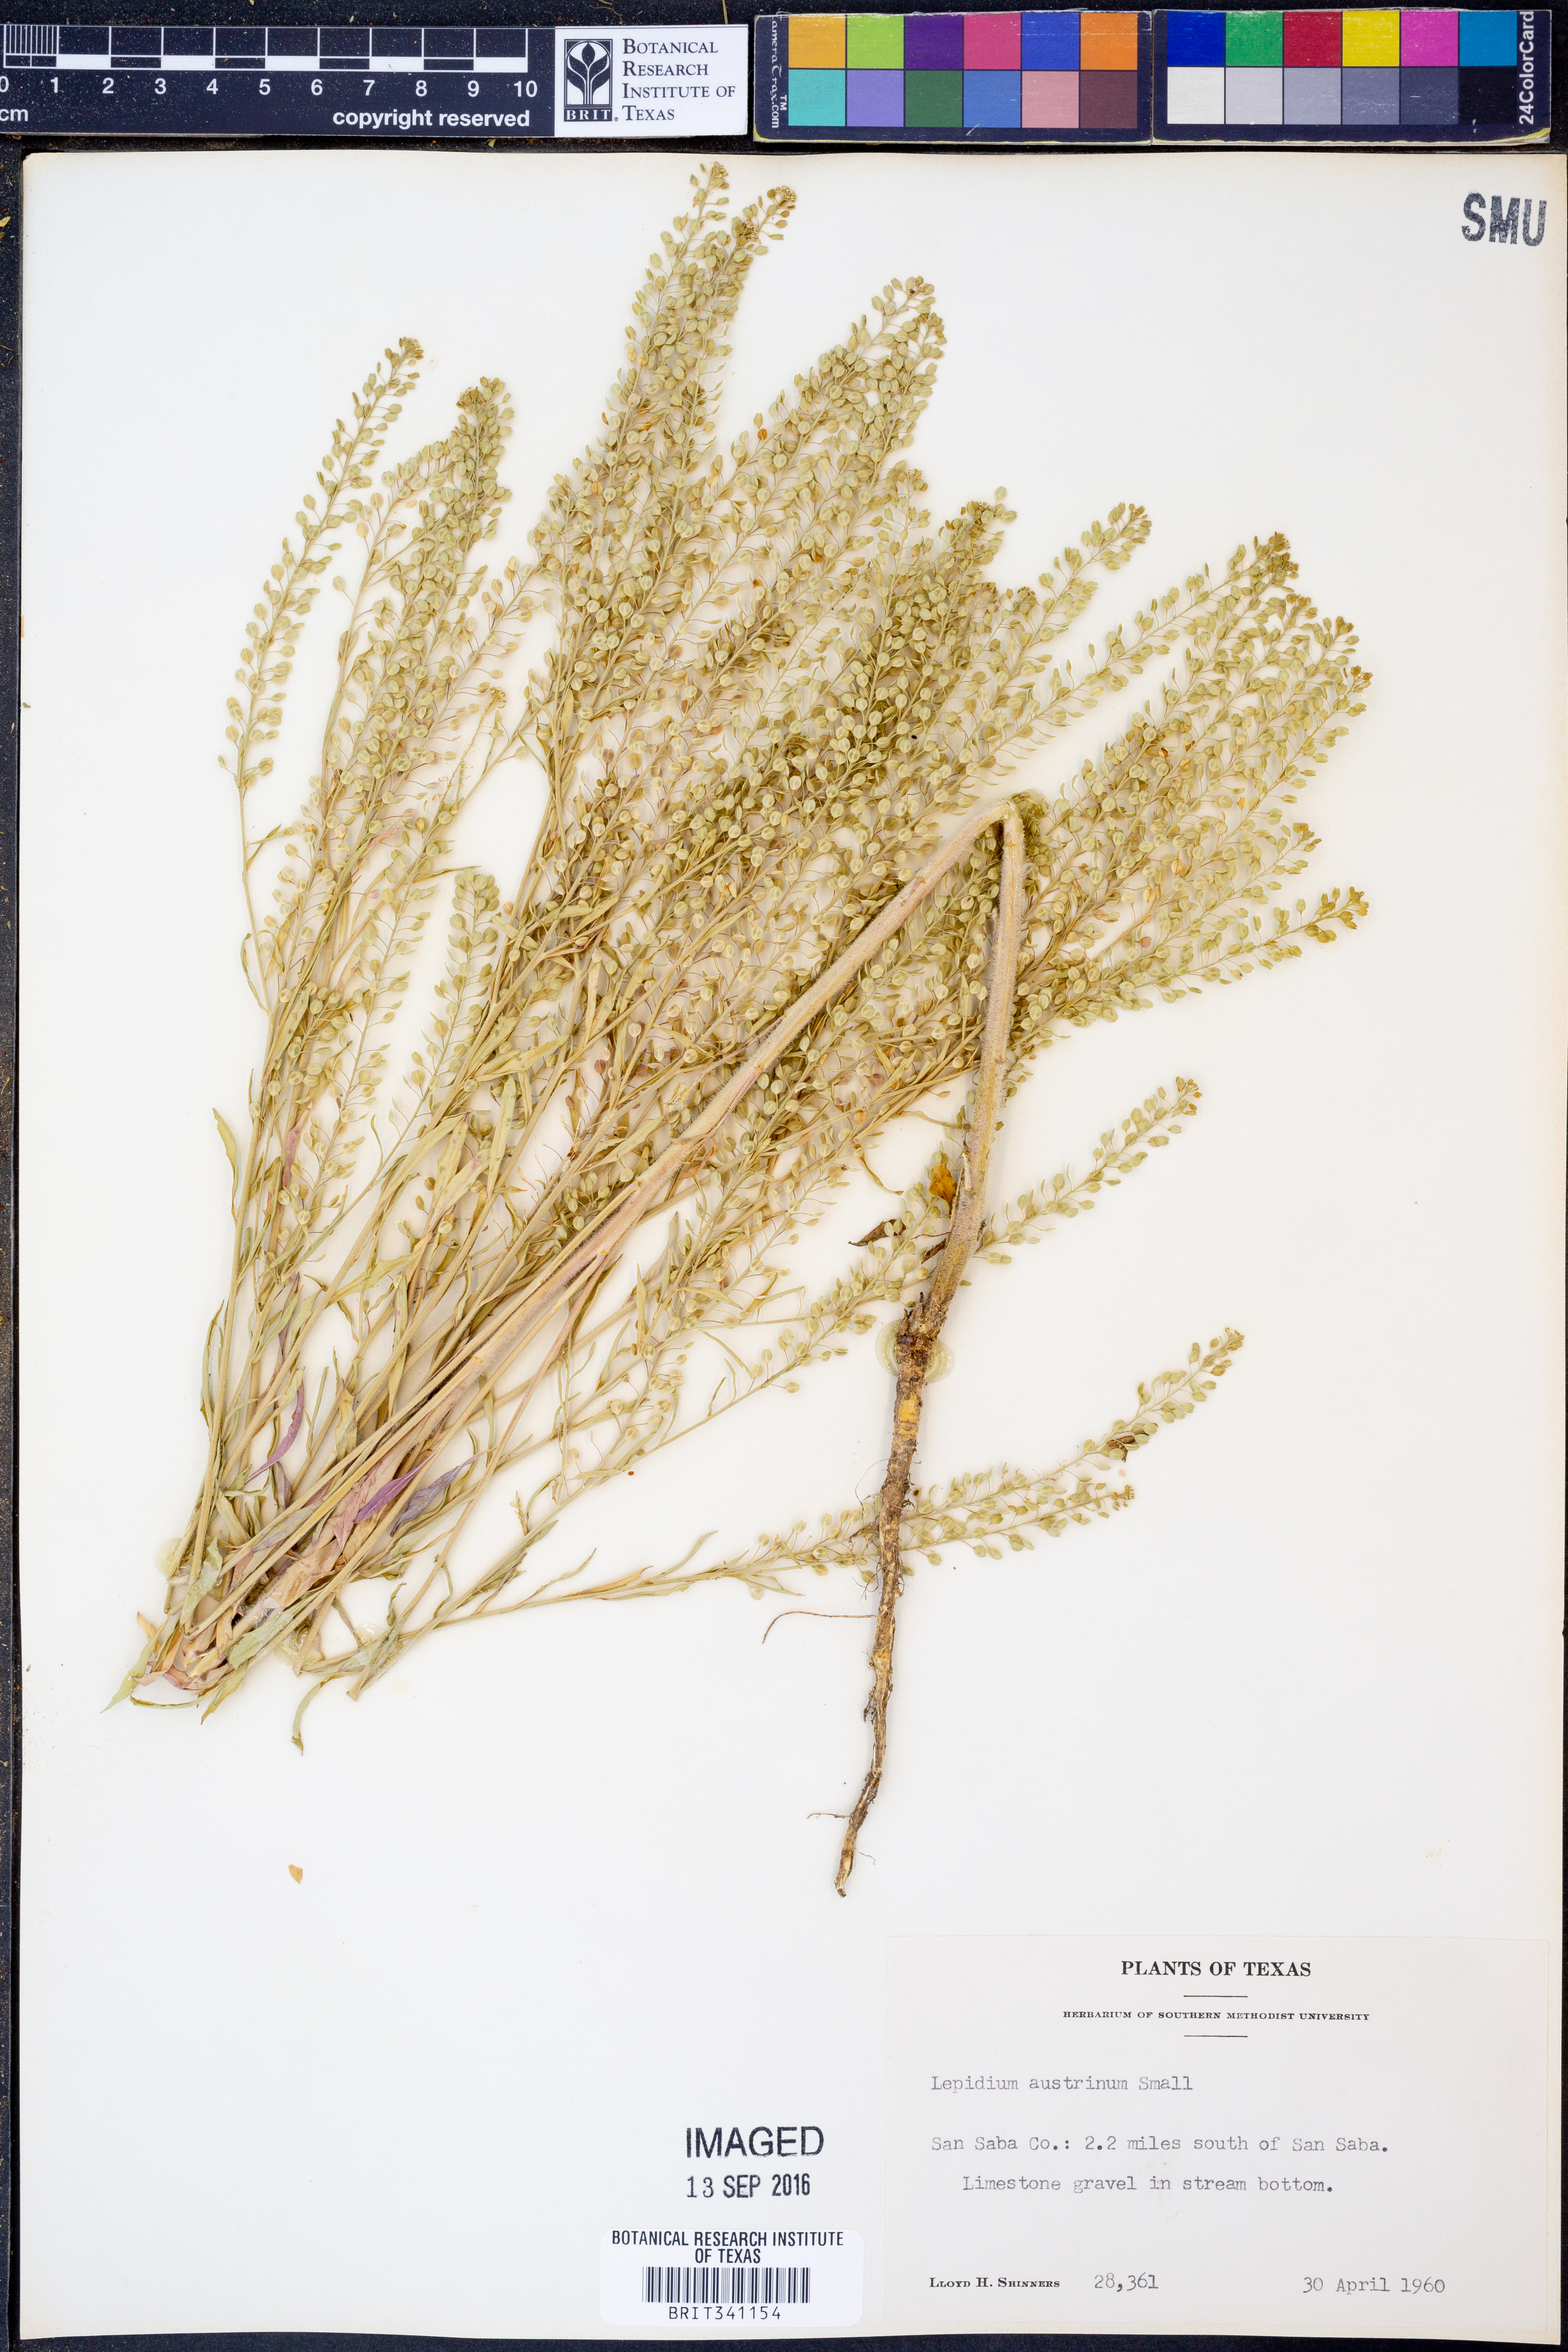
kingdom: Plantae
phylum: Tracheophyta
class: Magnoliopsida
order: Brassicales
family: Brassicaceae
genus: Lepidium
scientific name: Lepidium austrinum
